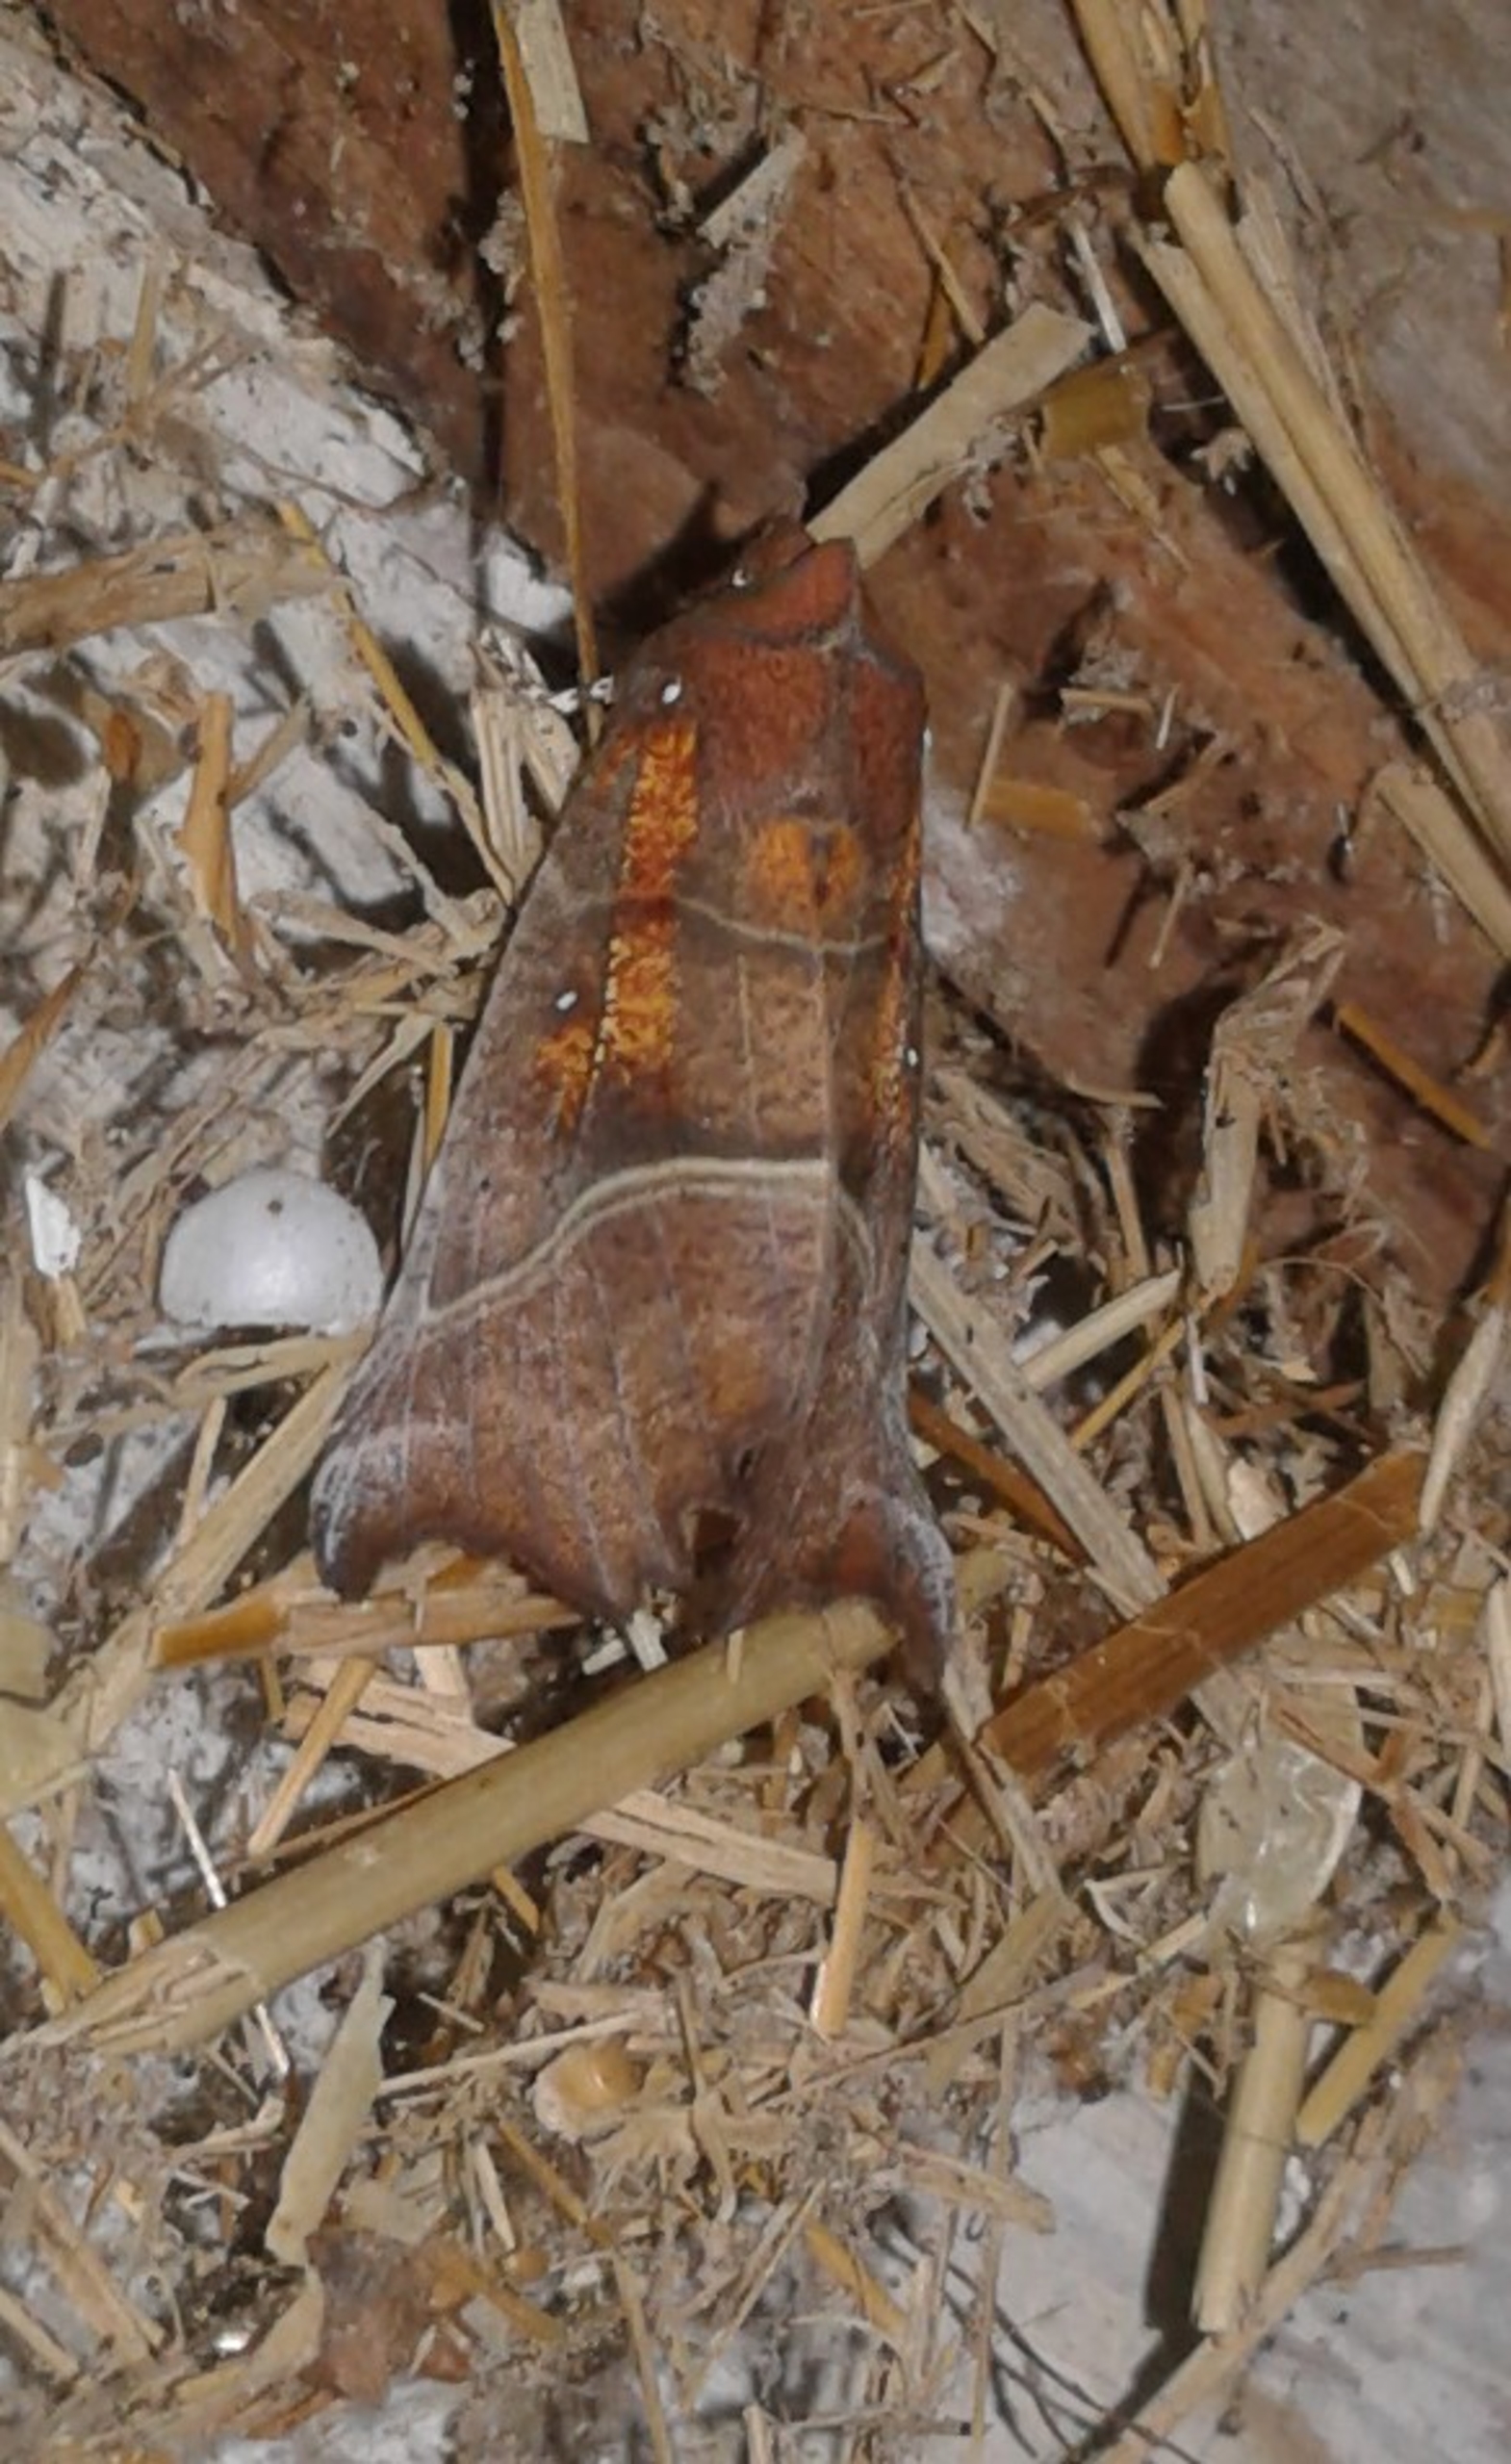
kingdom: Animalia
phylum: Arthropoda
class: Insecta
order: Lepidoptera
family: Erebidae
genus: Scoliopteryx
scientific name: Scoliopteryx libatrix
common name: Husmoderugle
